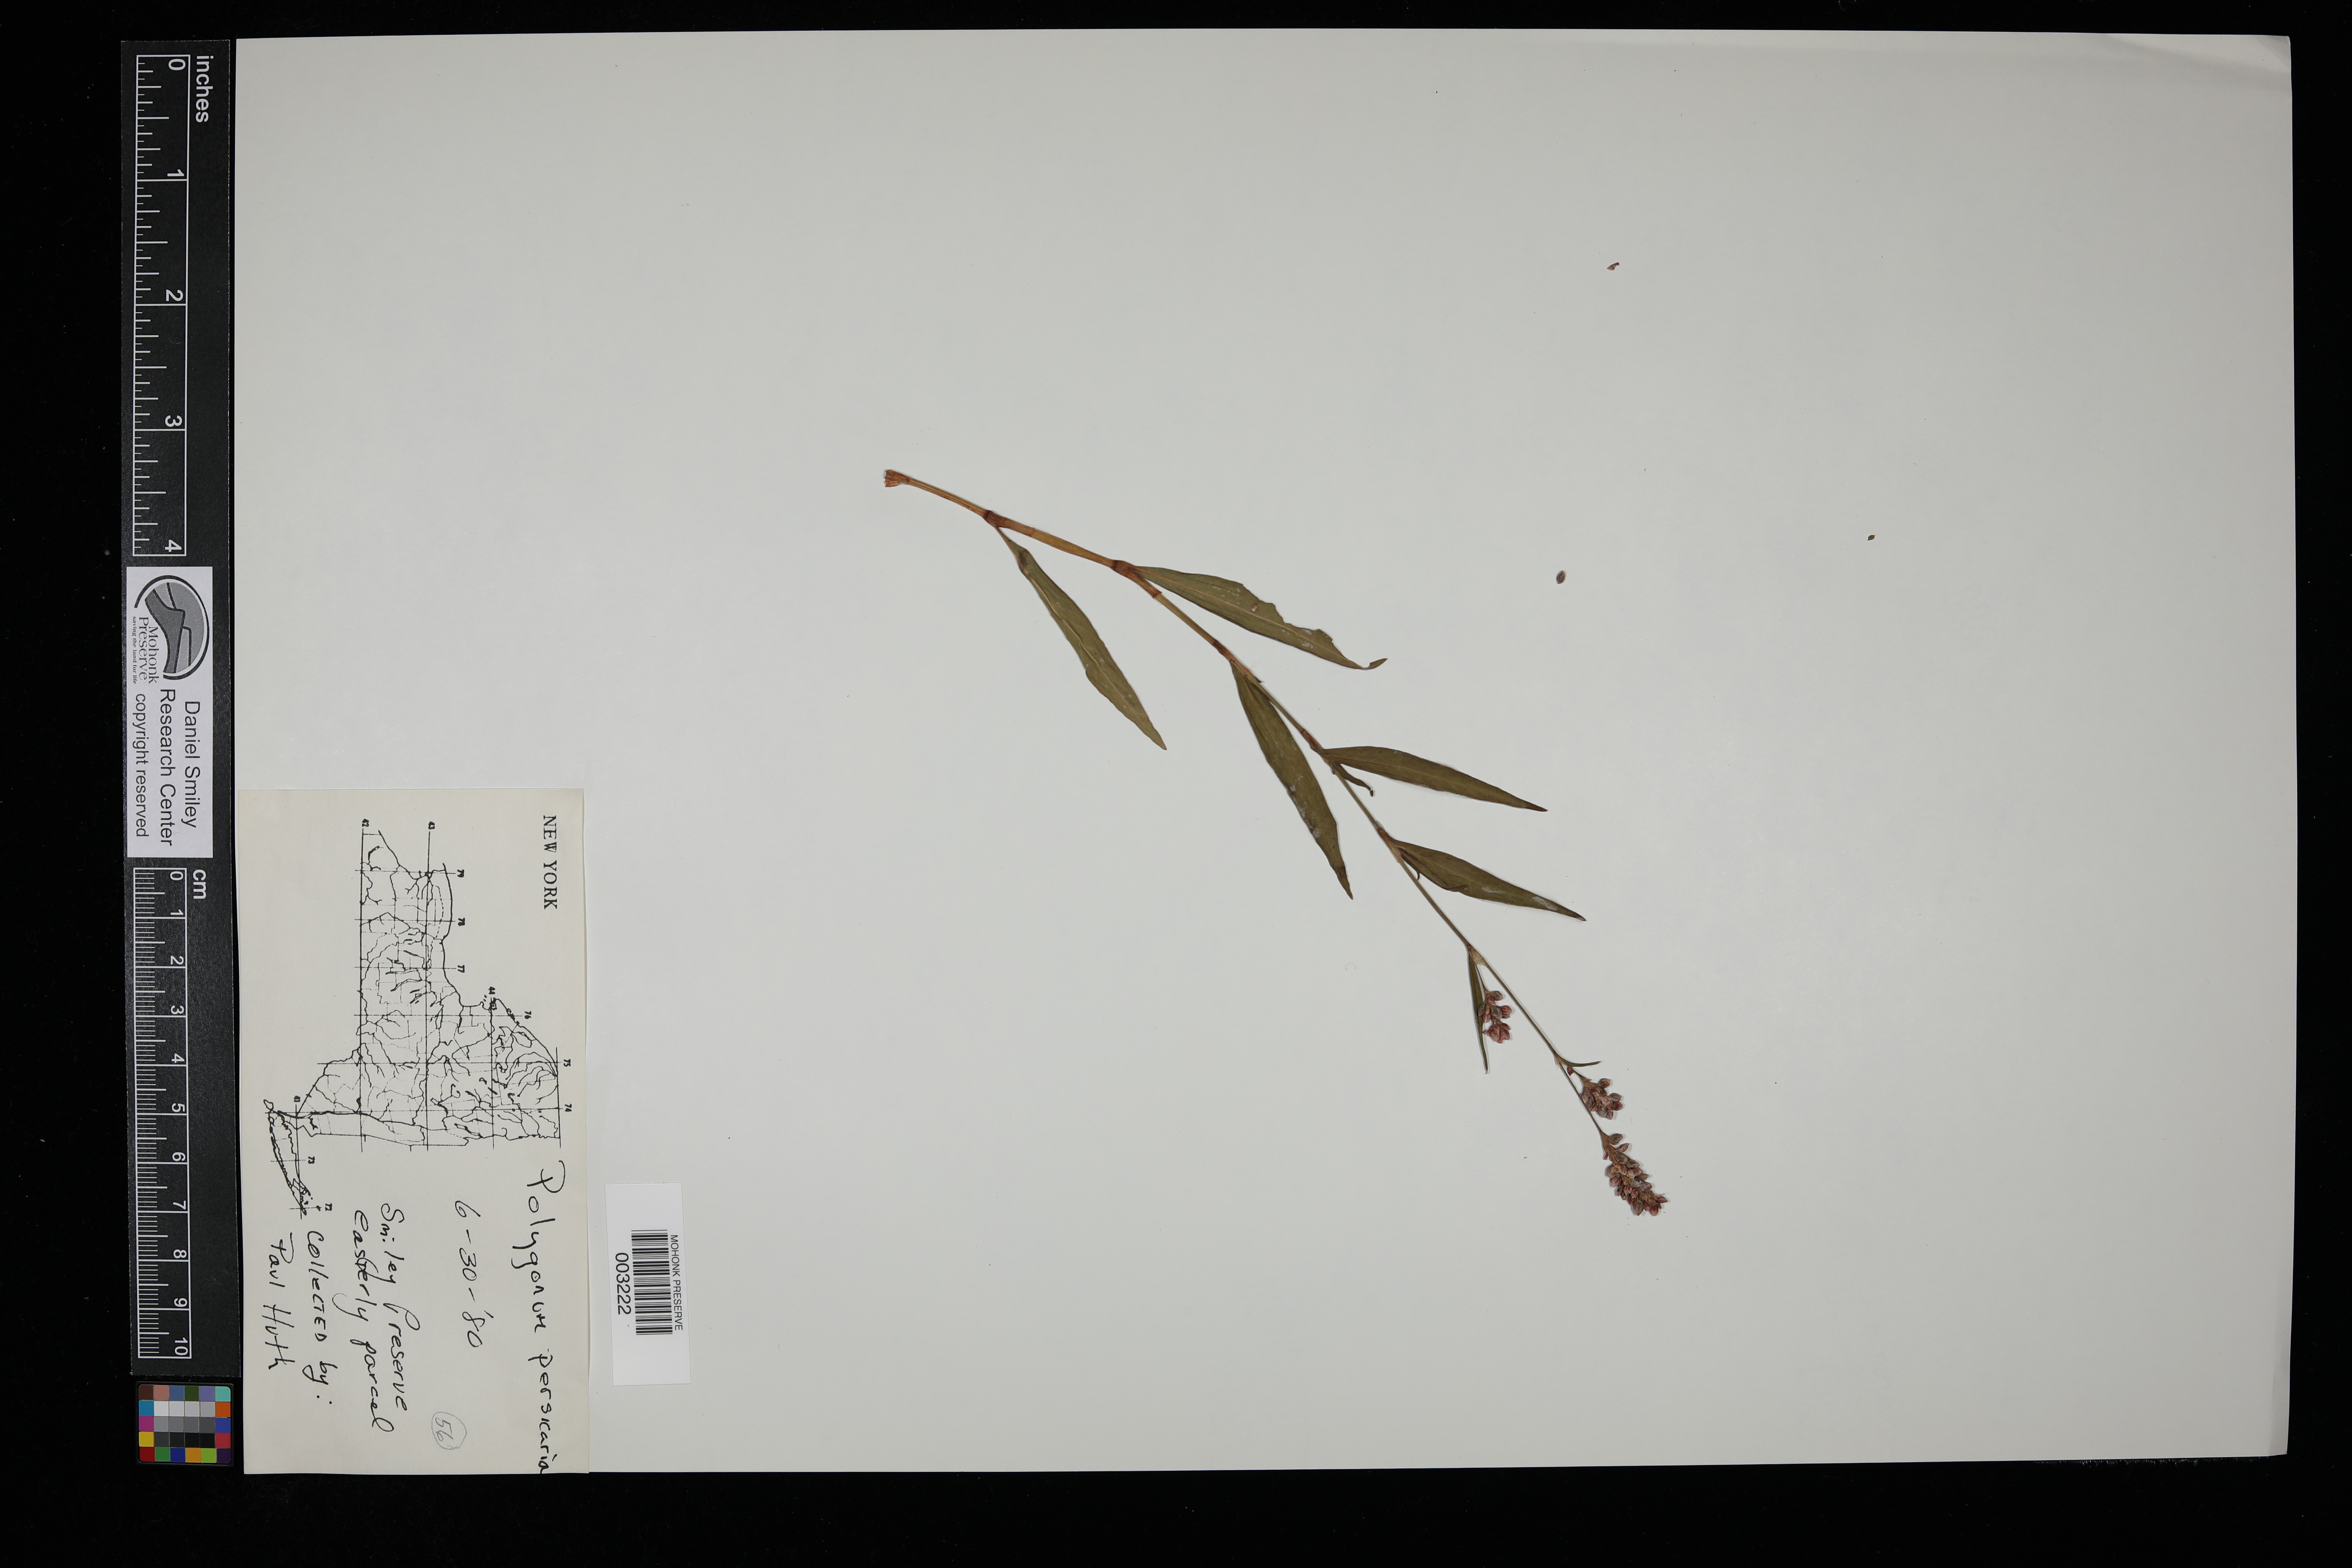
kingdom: Plantae
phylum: Tracheophyta
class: Magnoliopsida
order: Caryophyllales
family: Polygonaceae
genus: Persicaria
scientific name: Persicaria maculosa
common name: Redshank
